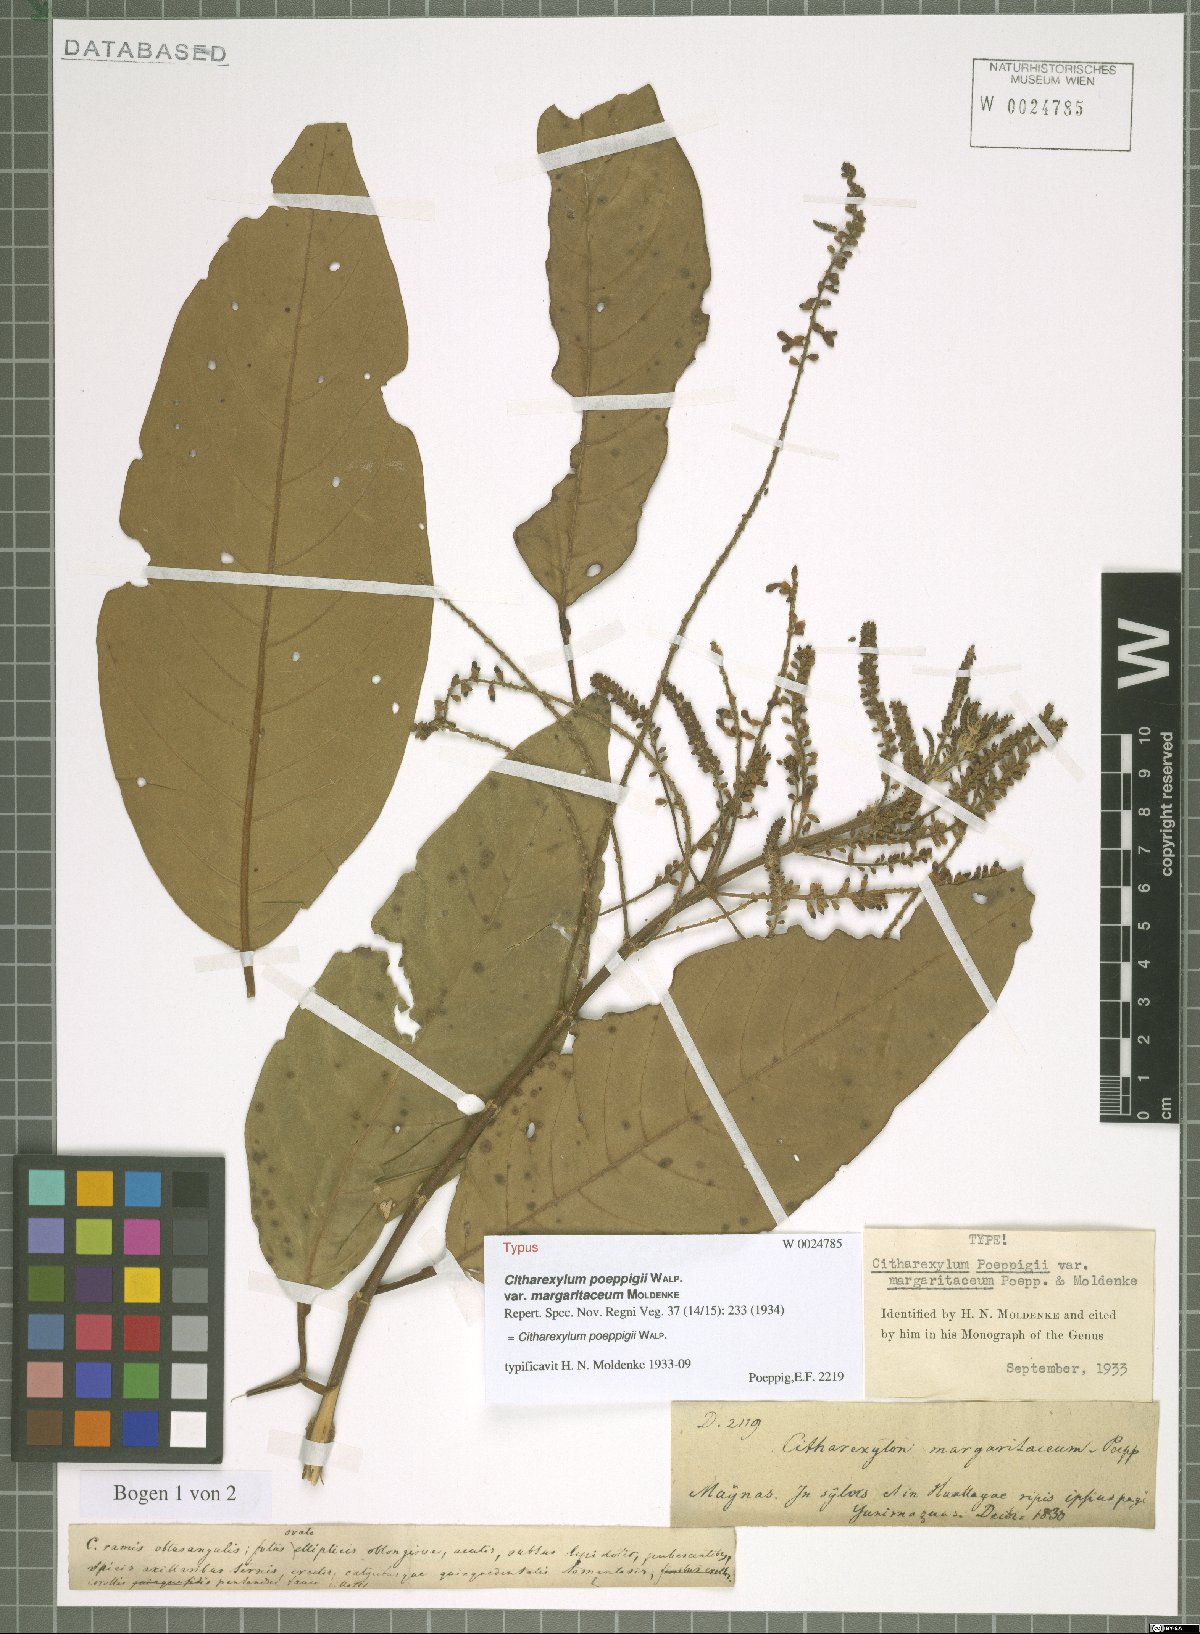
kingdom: Plantae
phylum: Tracheophyta
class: Magnoliopsida
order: Lamiales
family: Verbenaceae
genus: Citharexylum
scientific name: Citharexylum poeppigii
